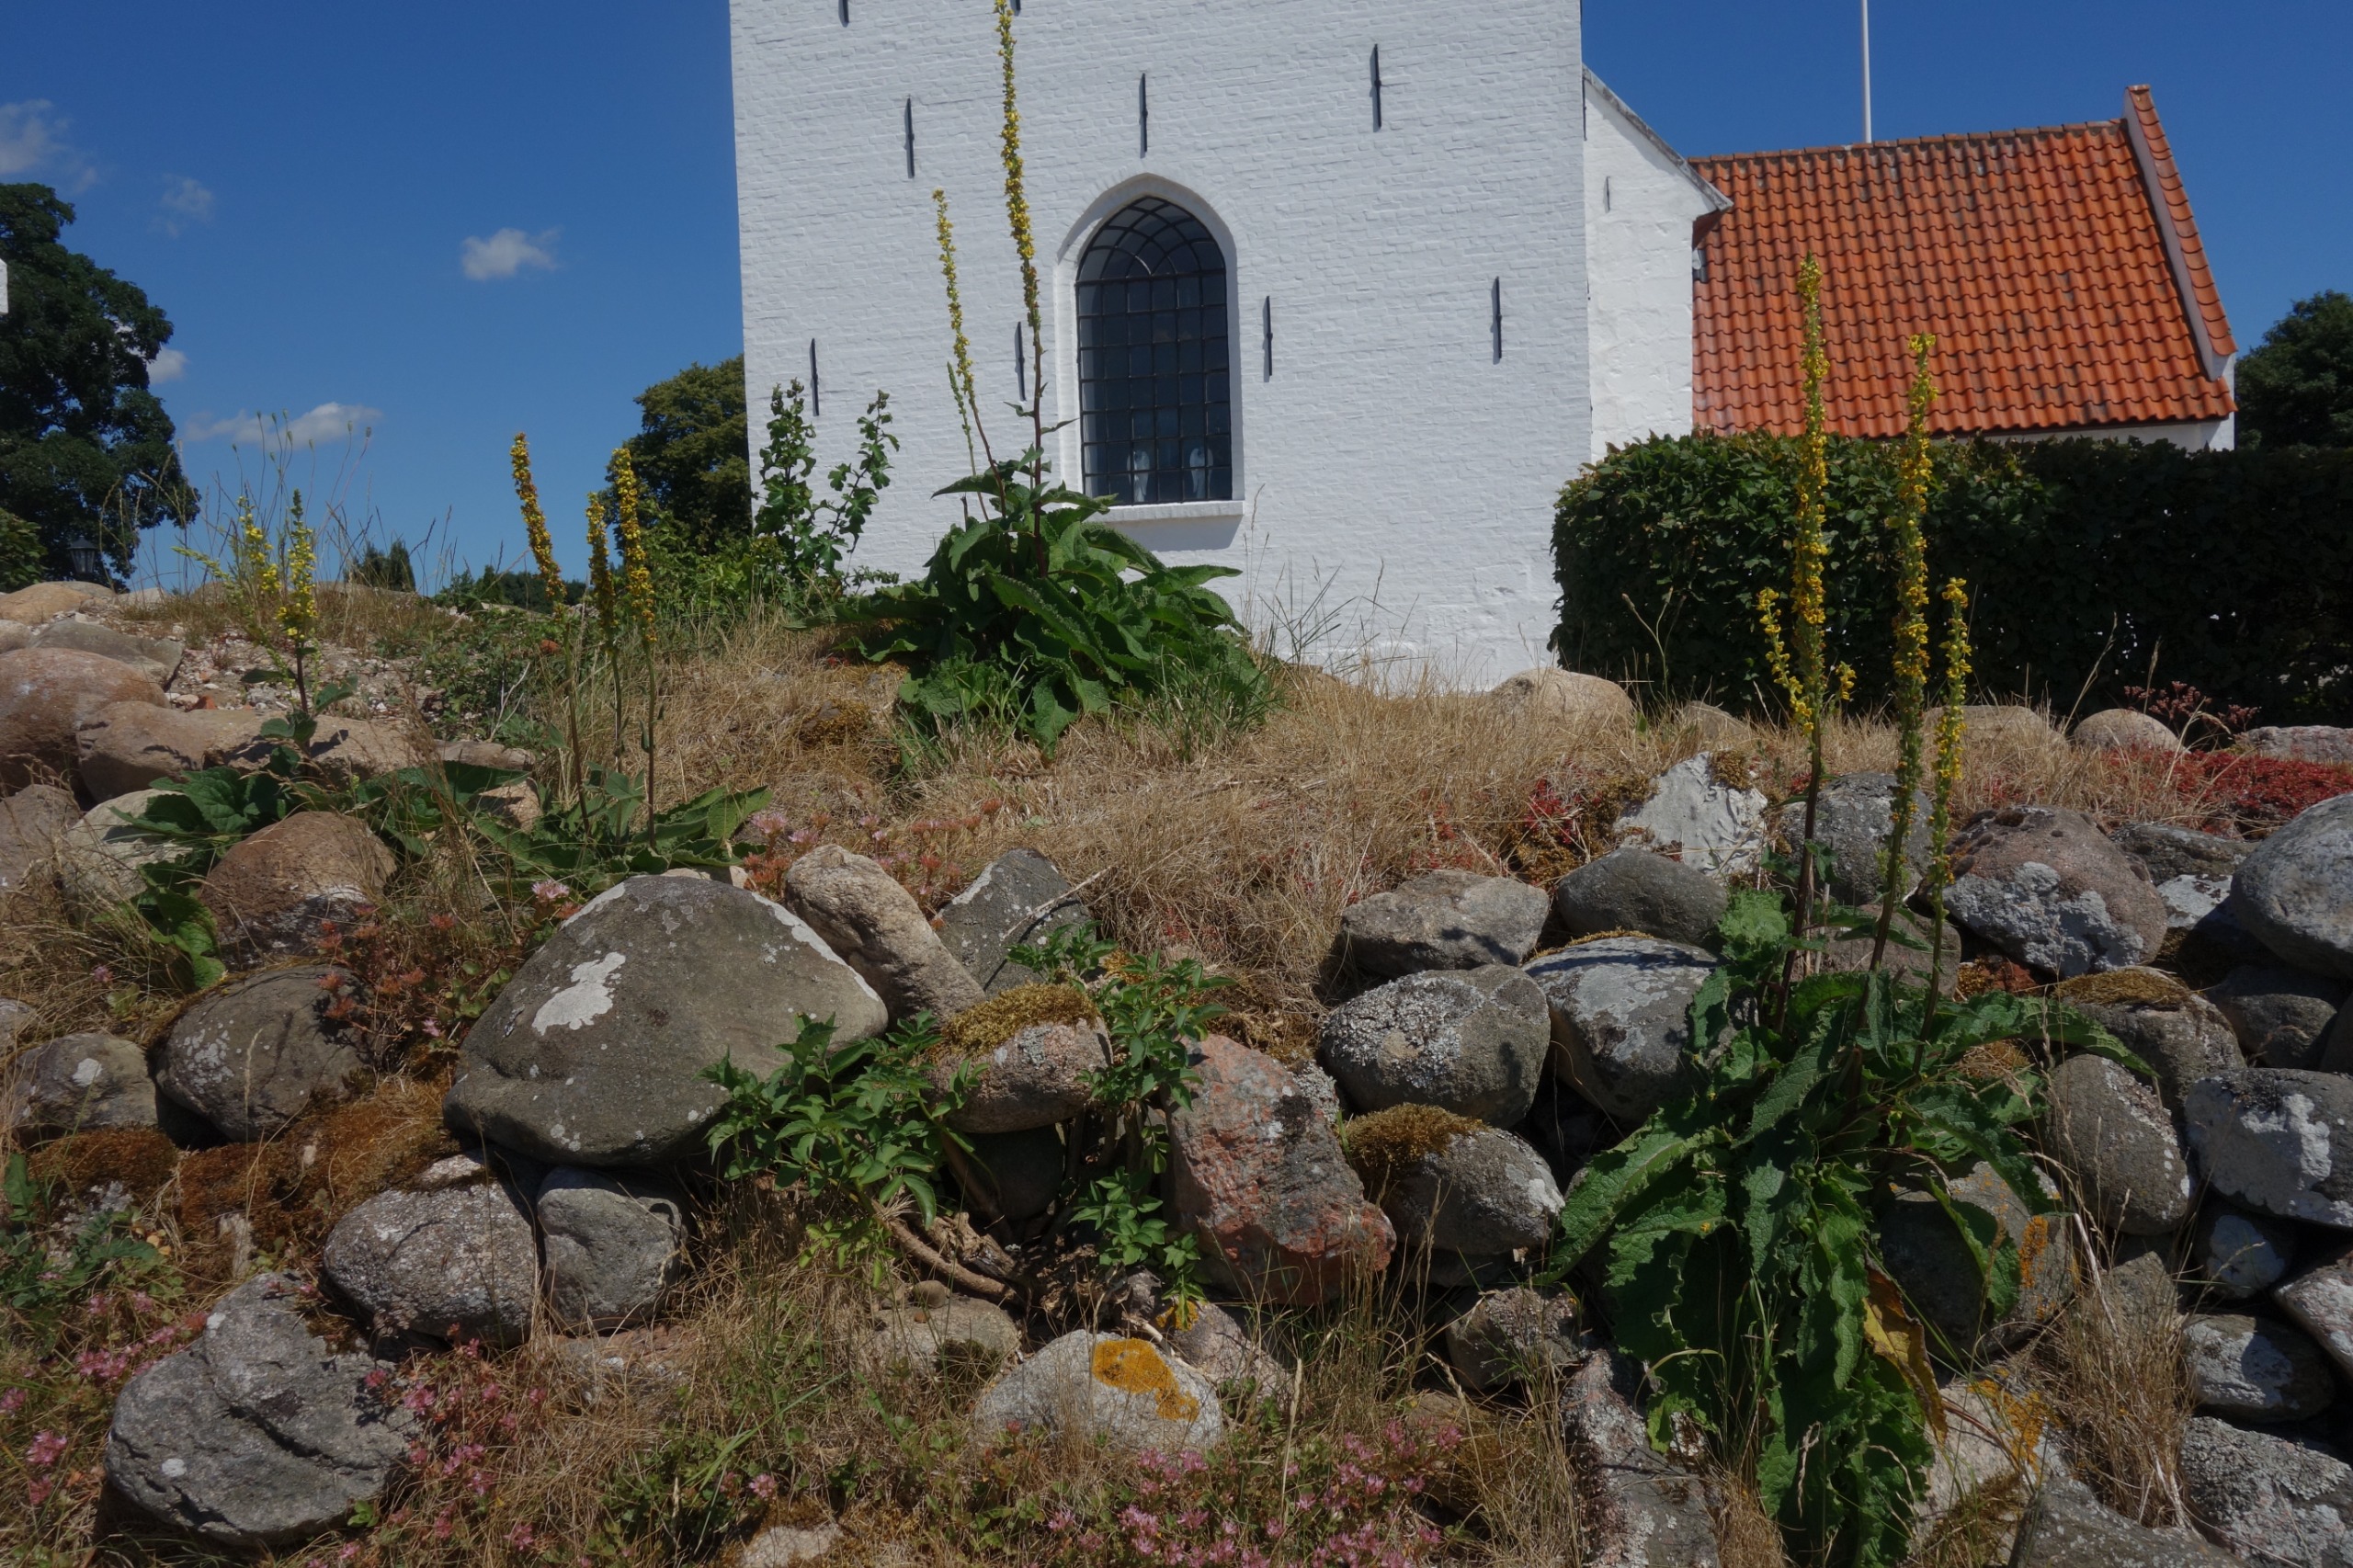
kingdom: Plantae
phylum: Tracheophyta
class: Magnoliopsida
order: Lamiales
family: Scrophulariaceae
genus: Verbascum
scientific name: Verbascum nigrum
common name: Mørk kongelys
